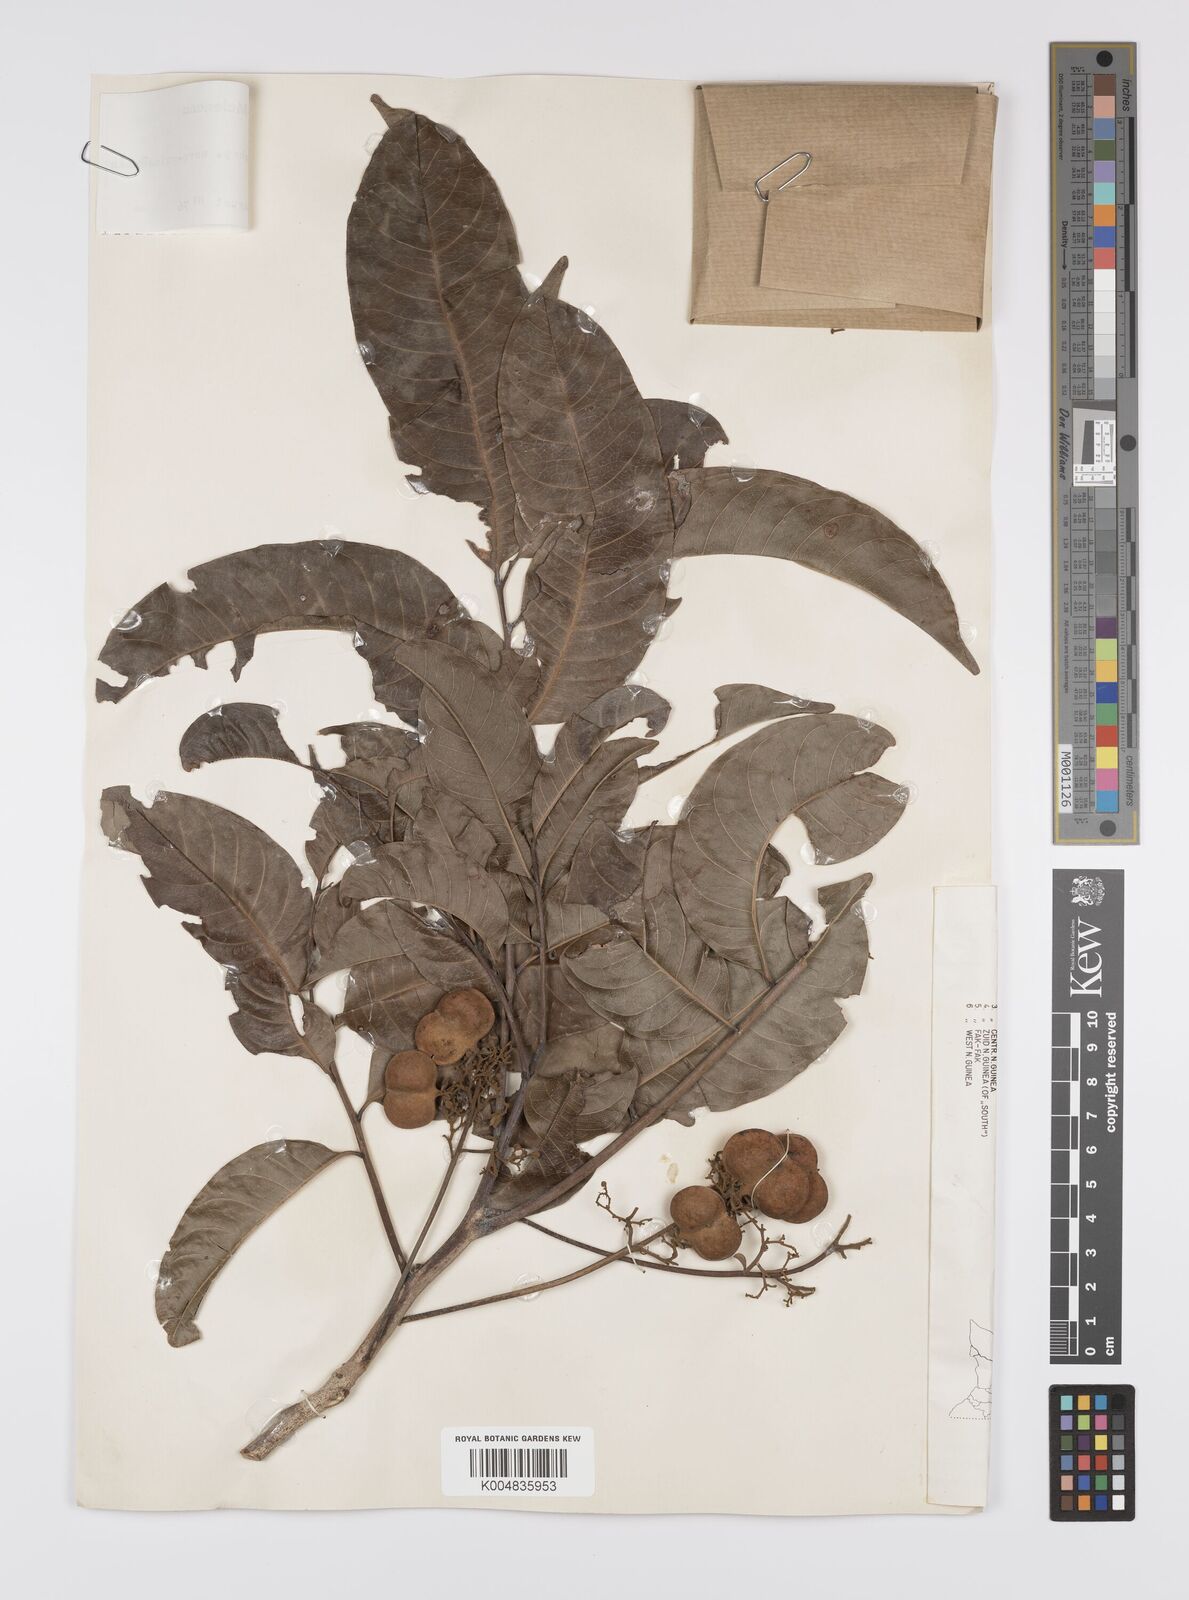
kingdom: Plantae
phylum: Tracheophyta
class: Magnoliopsida
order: Sapindales
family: Sapindaceae
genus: Harpullia
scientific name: Harpullia cupanioides
